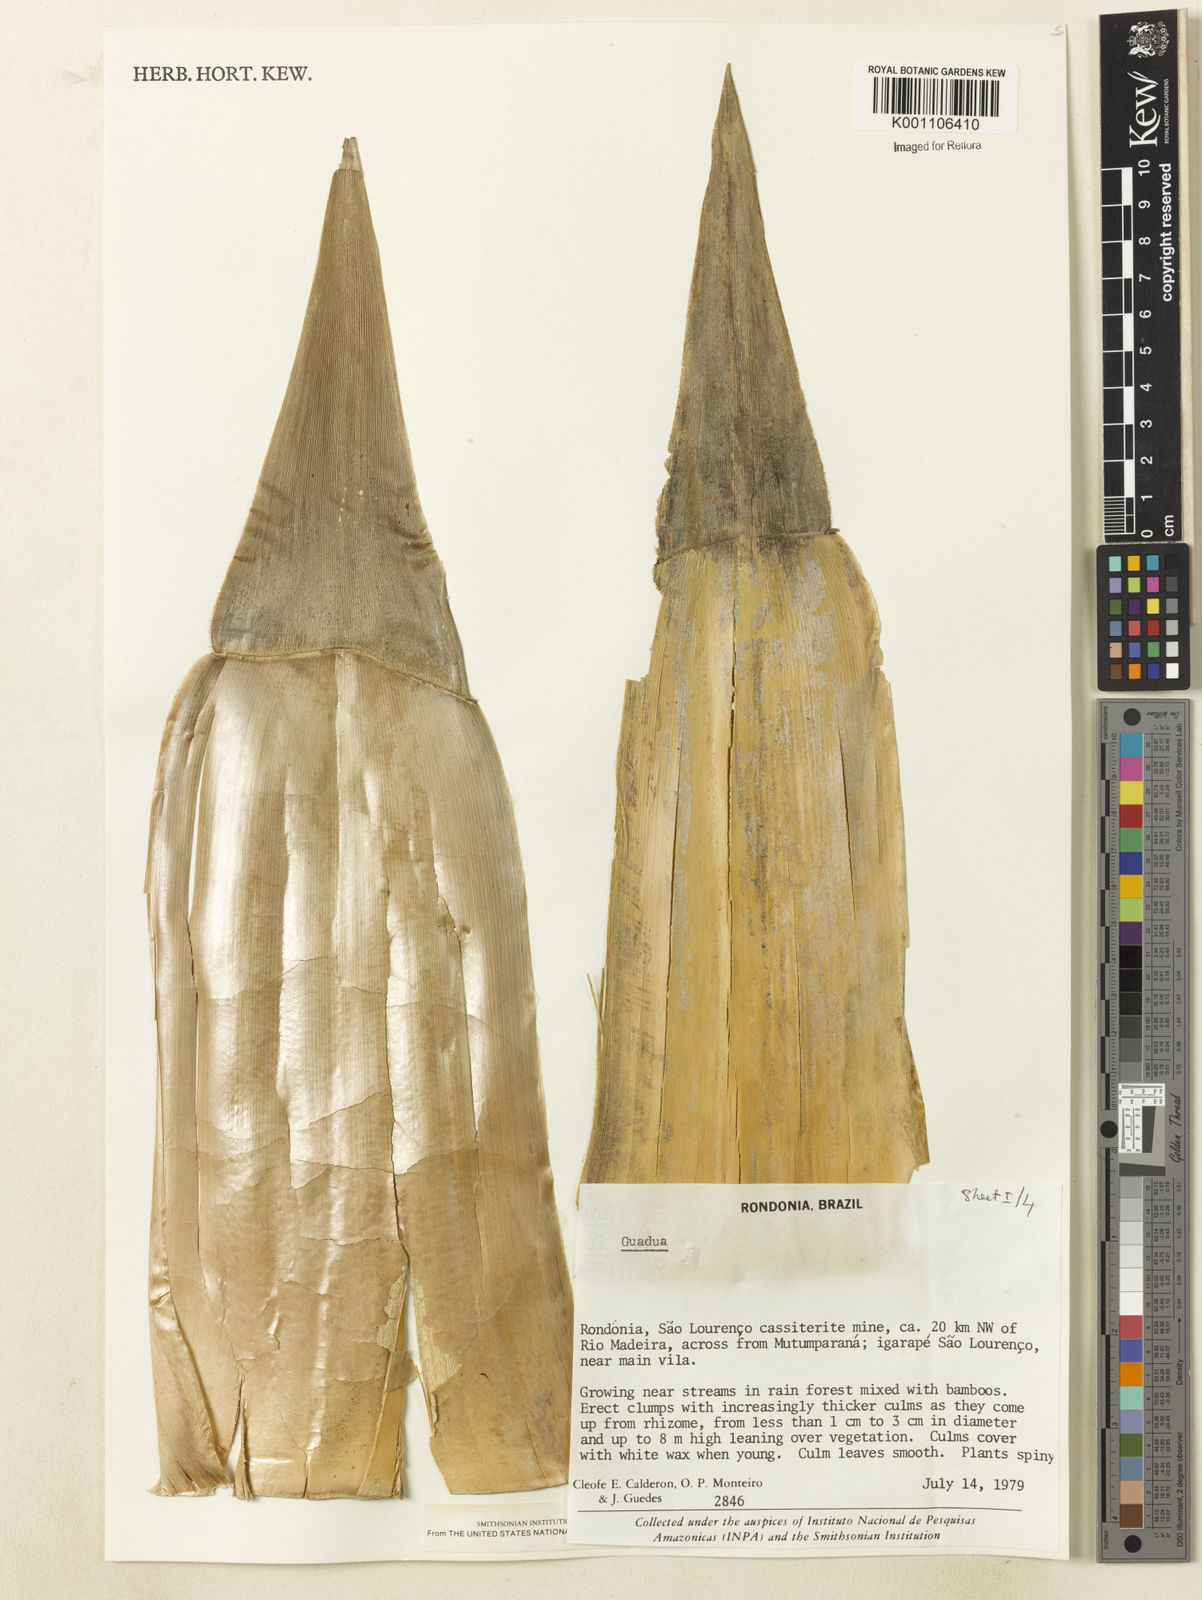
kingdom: Plantae
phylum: Tracheophyta
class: Liliopsida
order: Poales
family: Poaceae
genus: Guadua
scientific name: Guadua
